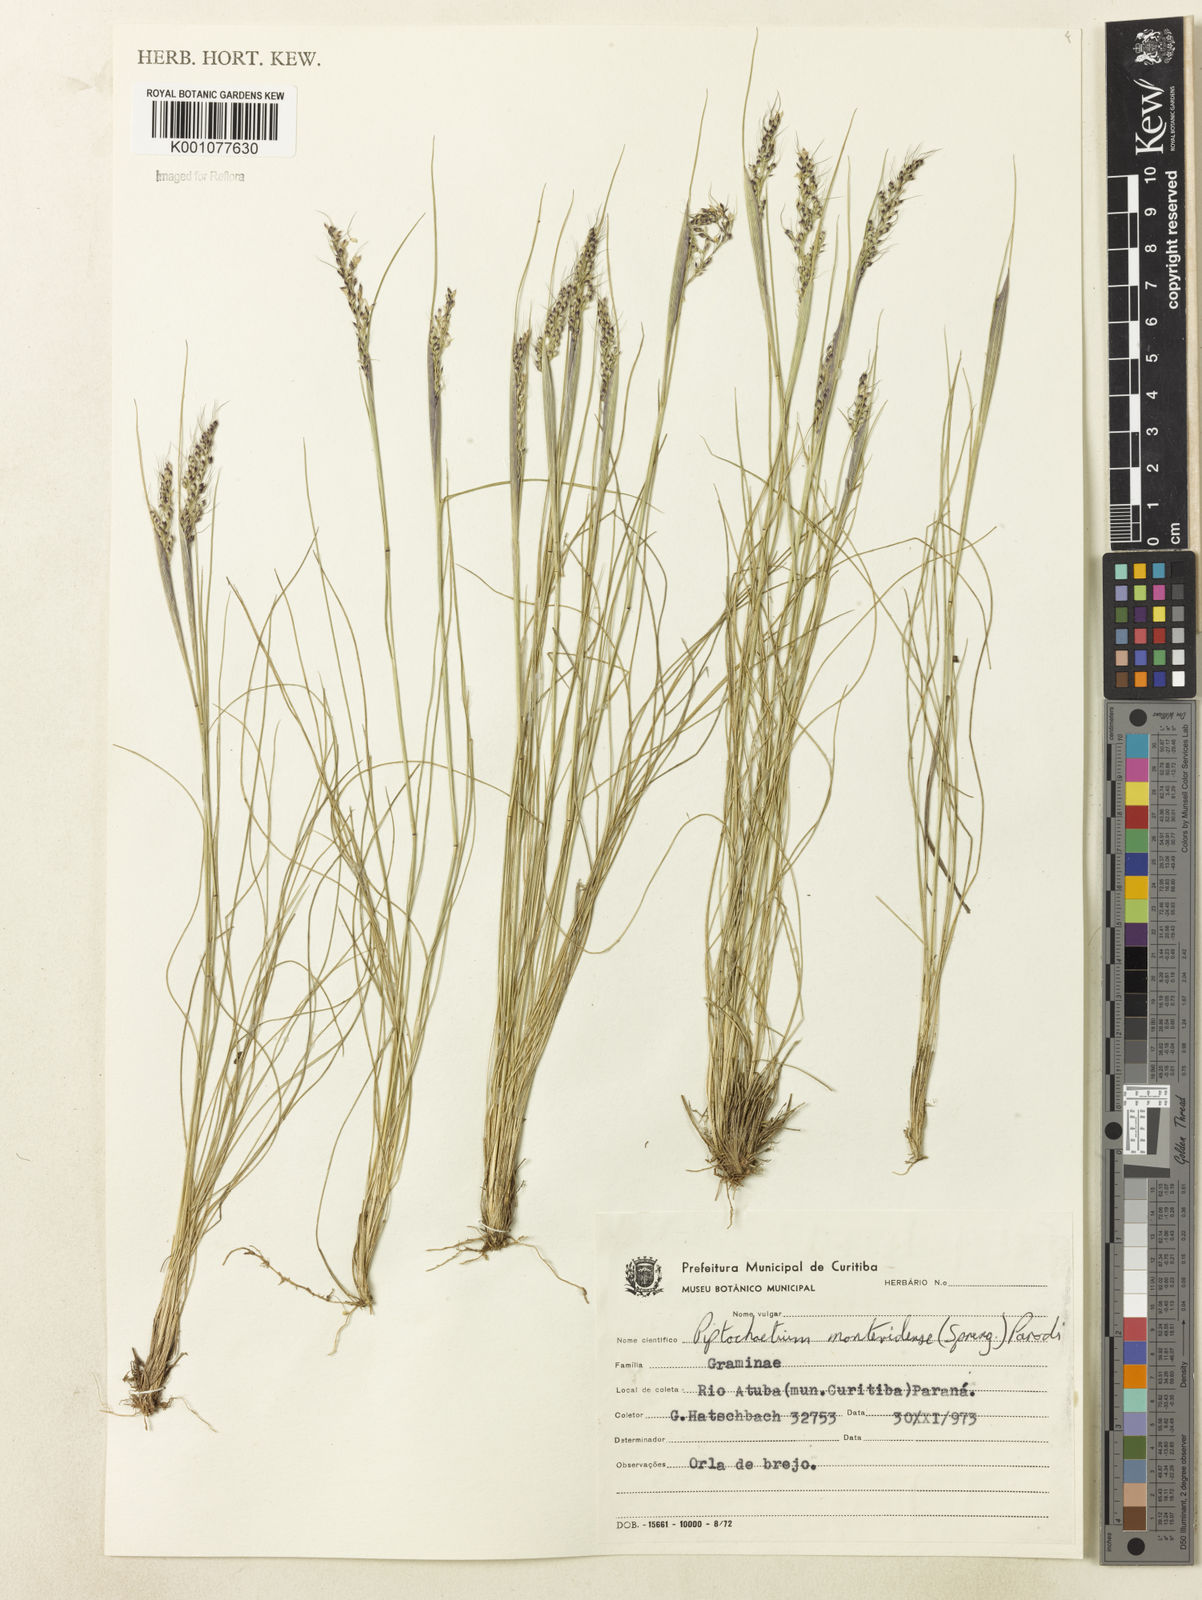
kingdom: Plantae
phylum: Tracheophyta
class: Liliopsida
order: Poales
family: Poaceae
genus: Piptochaetium
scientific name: Piptochaetium montevidense
